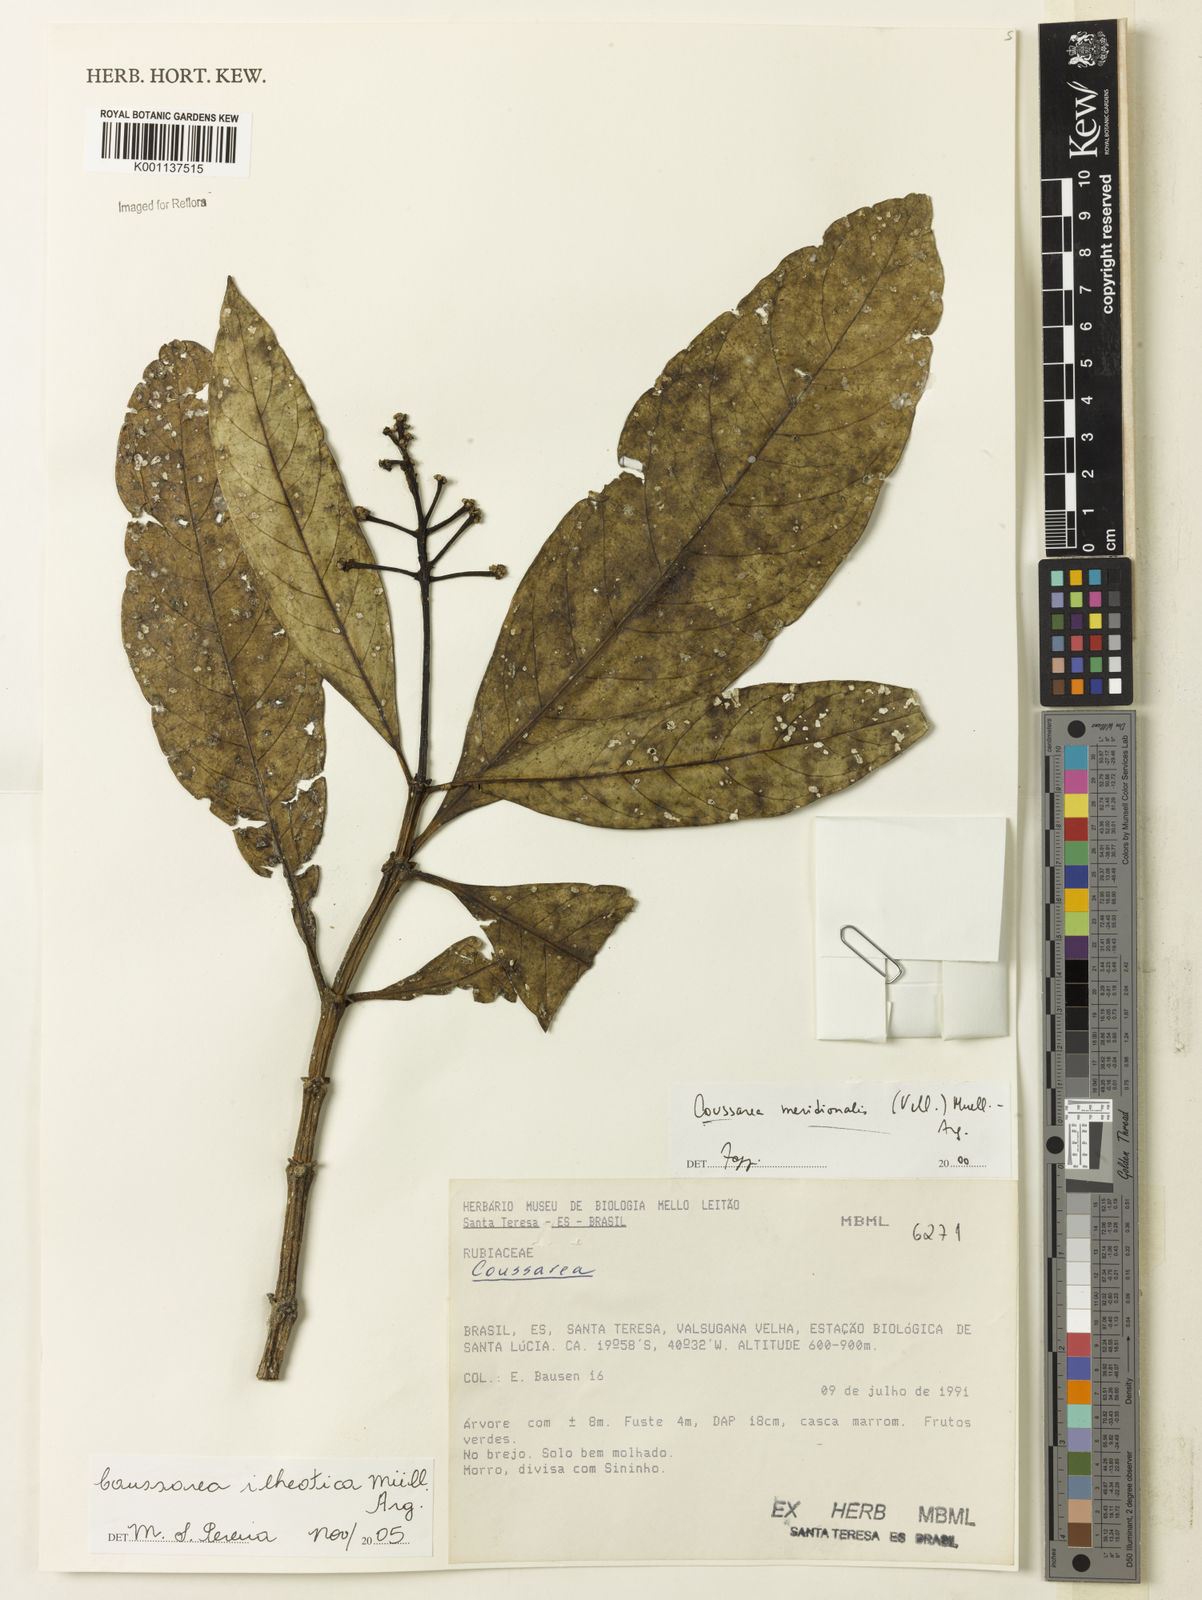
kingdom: Plantae
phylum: Tracheophyta
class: Magnoliopsida
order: Gentianales
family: Rubiaceae
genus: Coussarea
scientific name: Coussarea
